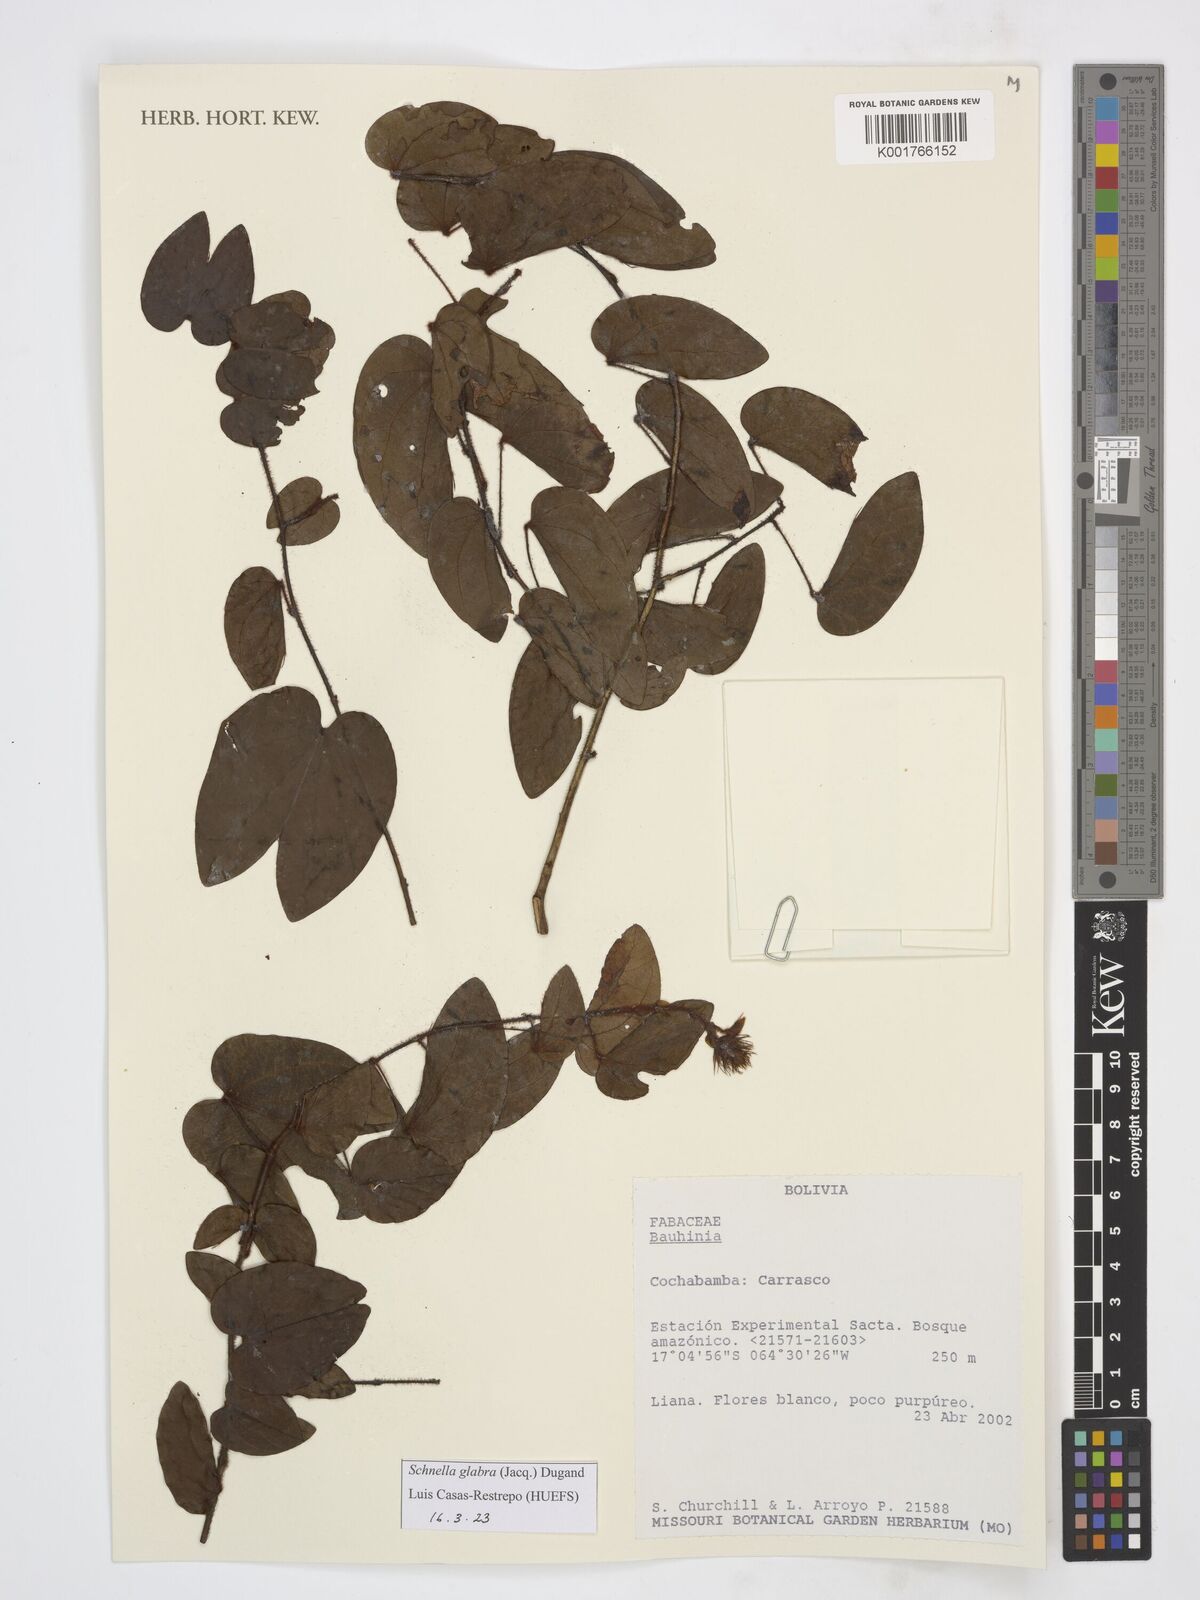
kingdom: Plantae
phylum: Tracheophyta
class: Magnoliopsida
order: Fabales
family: Fabaceae
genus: Schnella
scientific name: Schnella glabra
